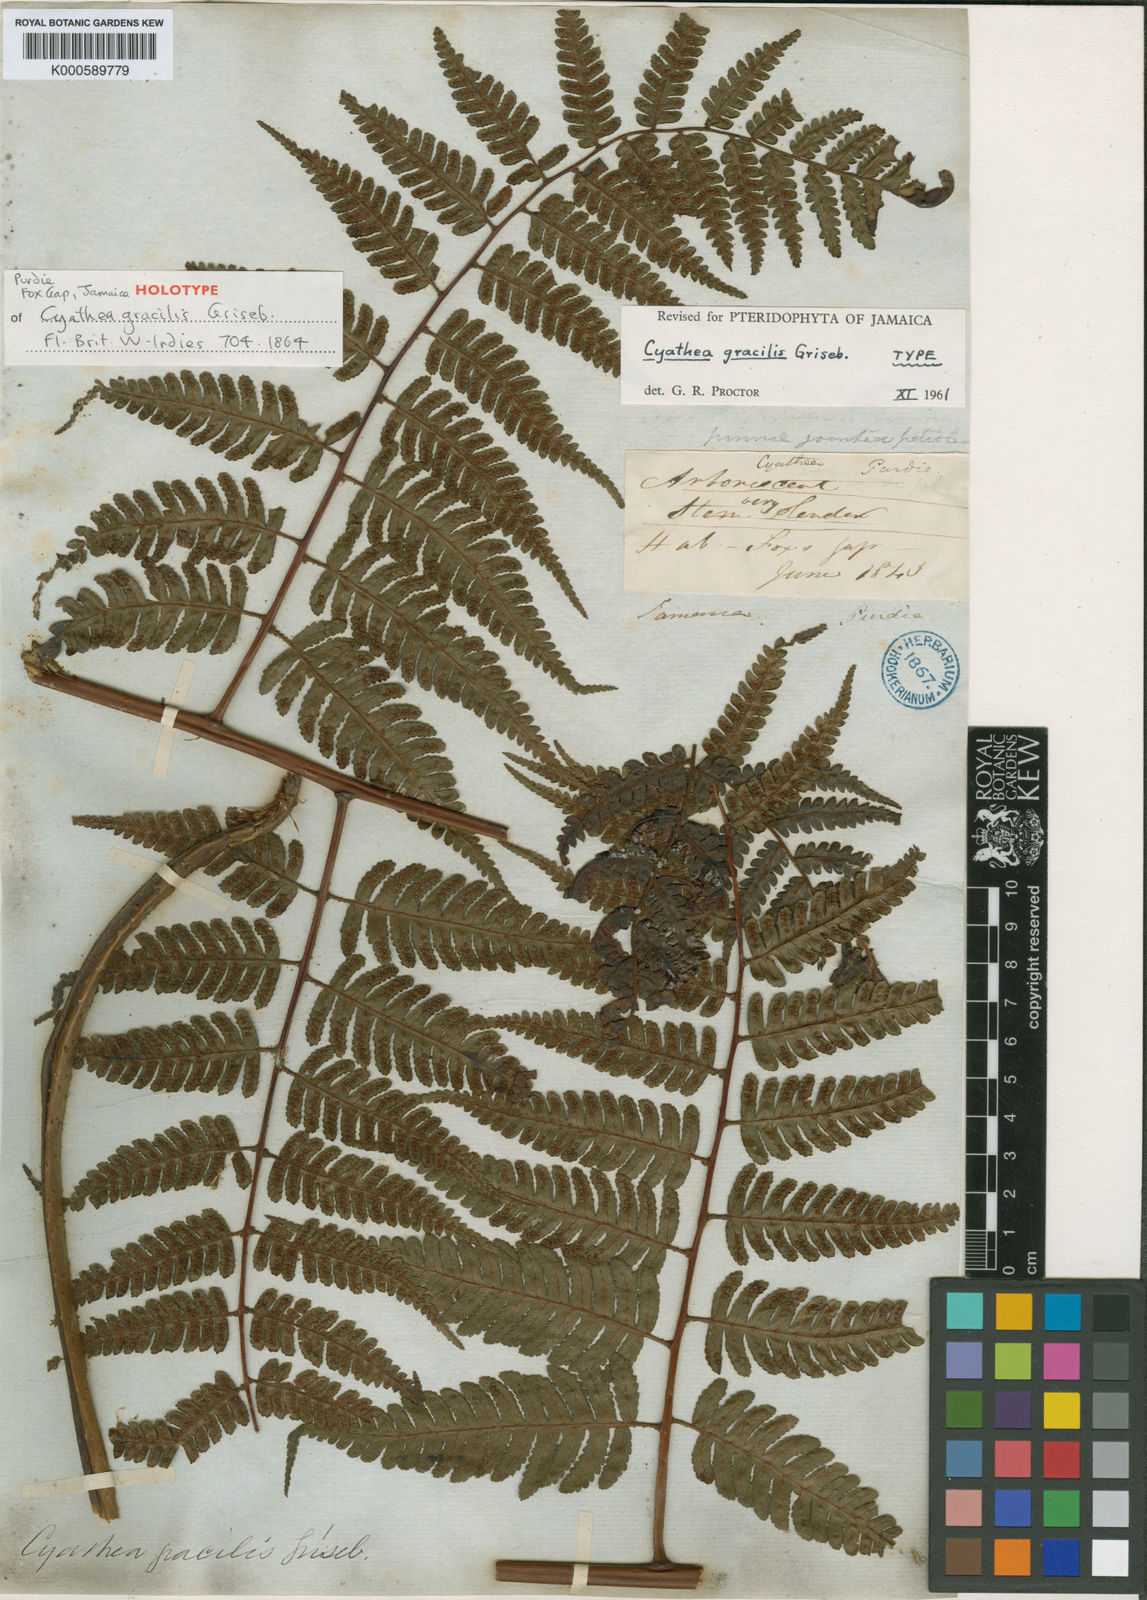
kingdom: Plantae
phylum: Tracheophyta
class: Polypodiopsida
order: Cyatheales
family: Cyatheaceae
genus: Cyathea
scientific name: Cyathea gracilis
